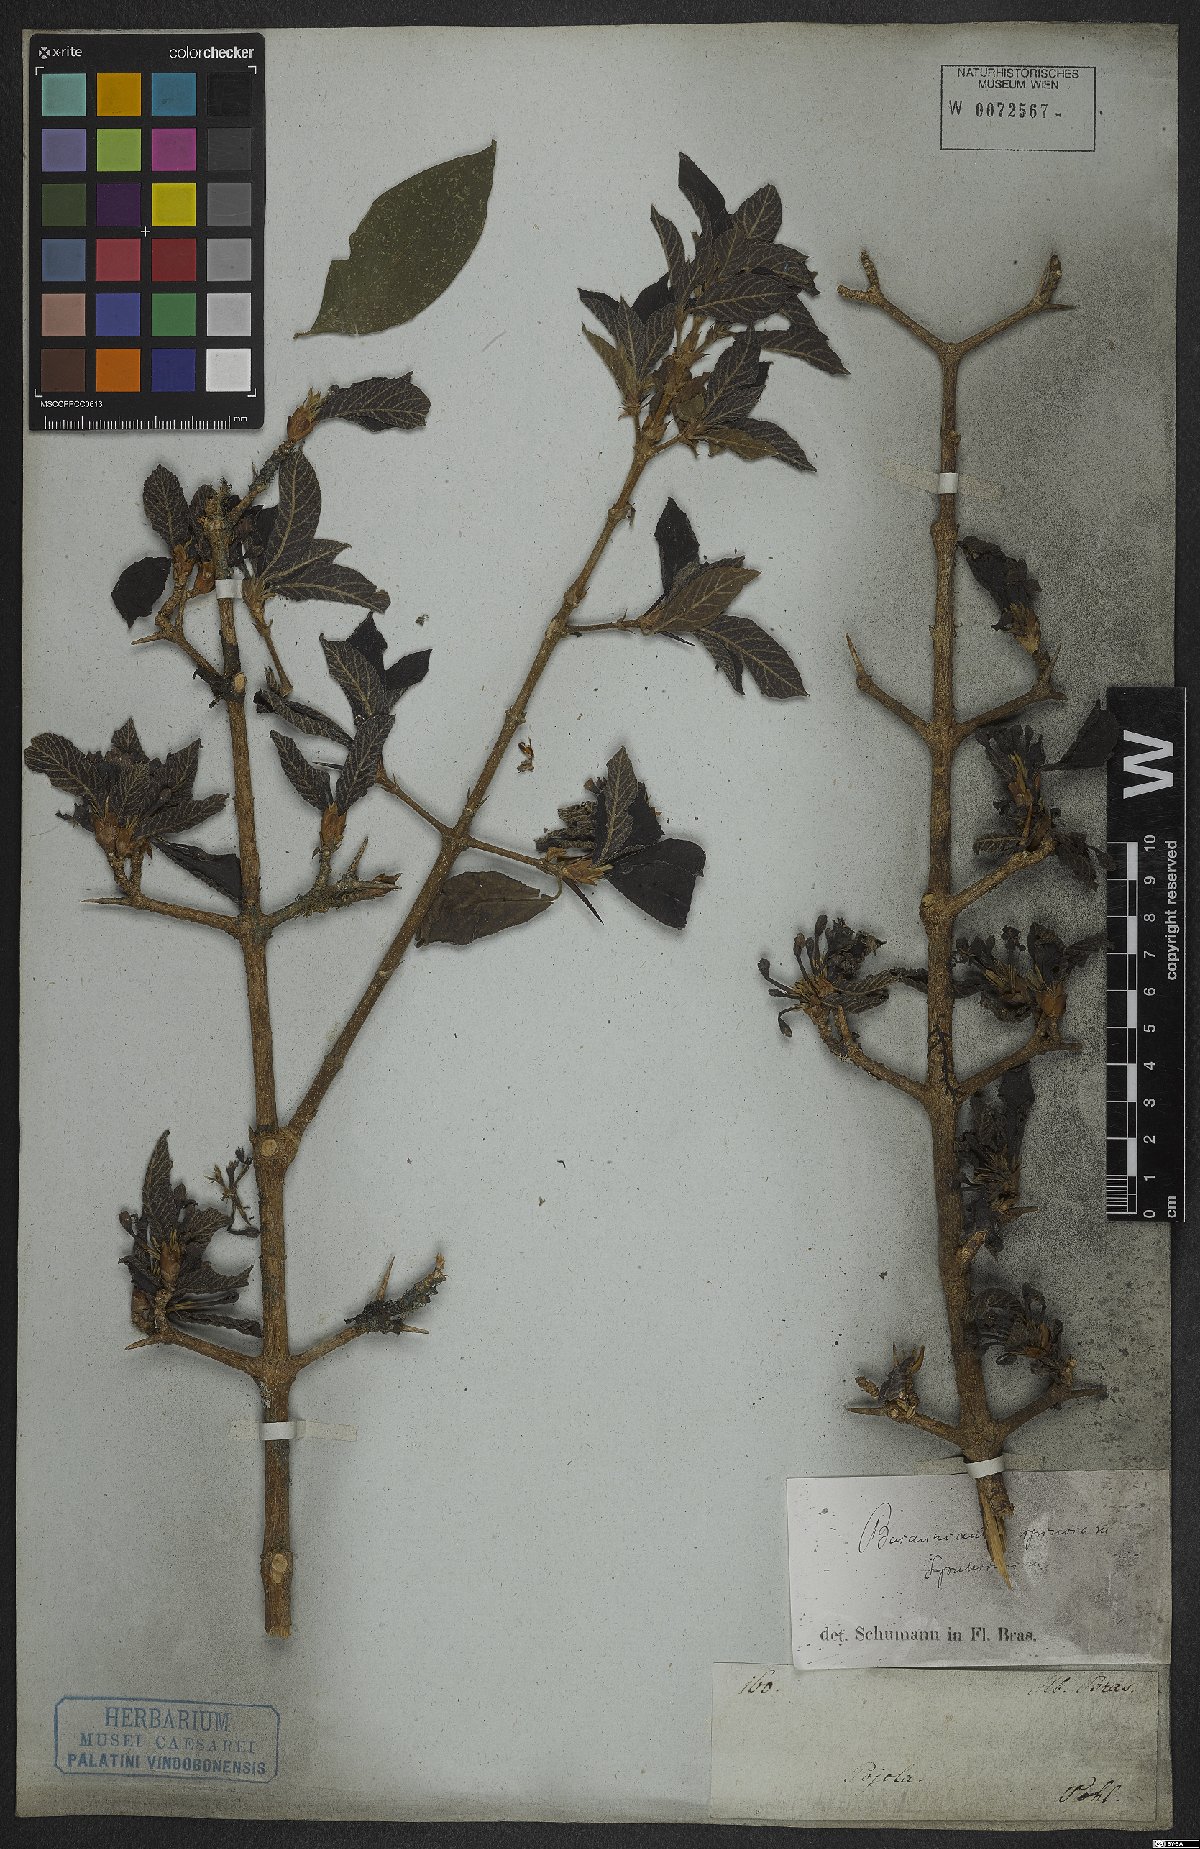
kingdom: Plantae
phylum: Tracheophyta
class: Magnoliopsida
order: Gentianales
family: Rubiaceae
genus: Randia
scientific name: Randia armata
